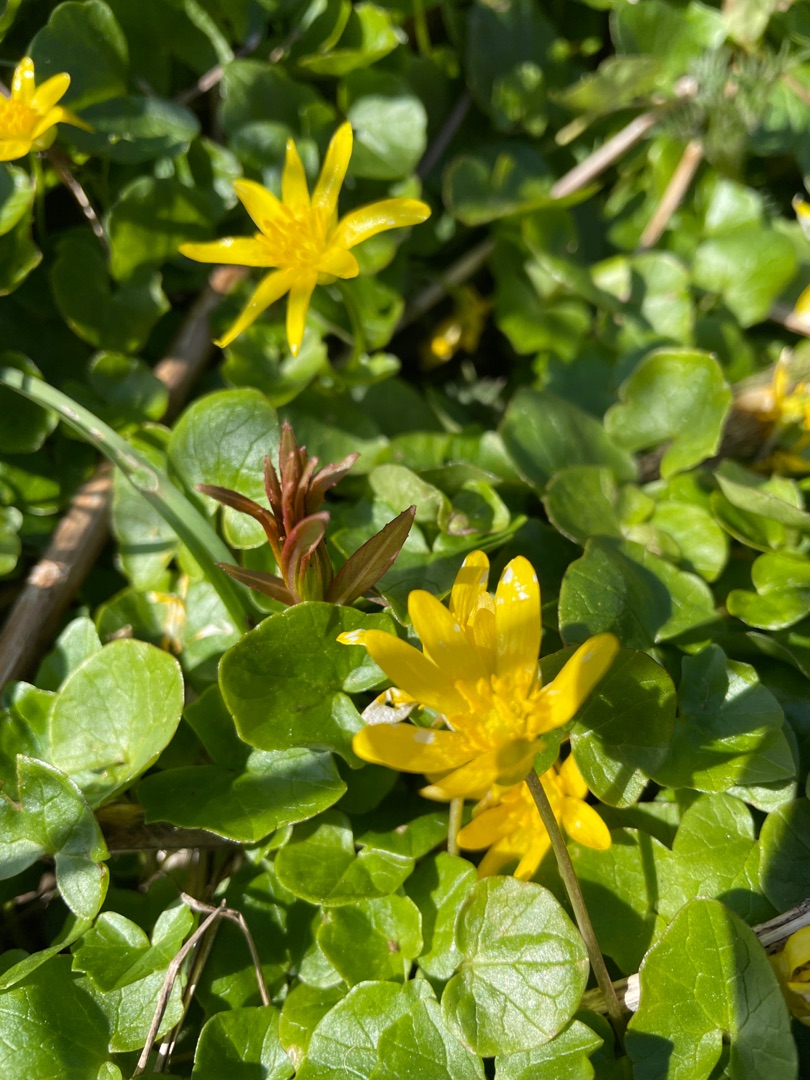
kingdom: Plantae
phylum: Tracheophyta
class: Magnoliopsida
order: Ranunculales
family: Ranunculaceae
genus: Ficaria
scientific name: Ficaria verna
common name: Vorterod
